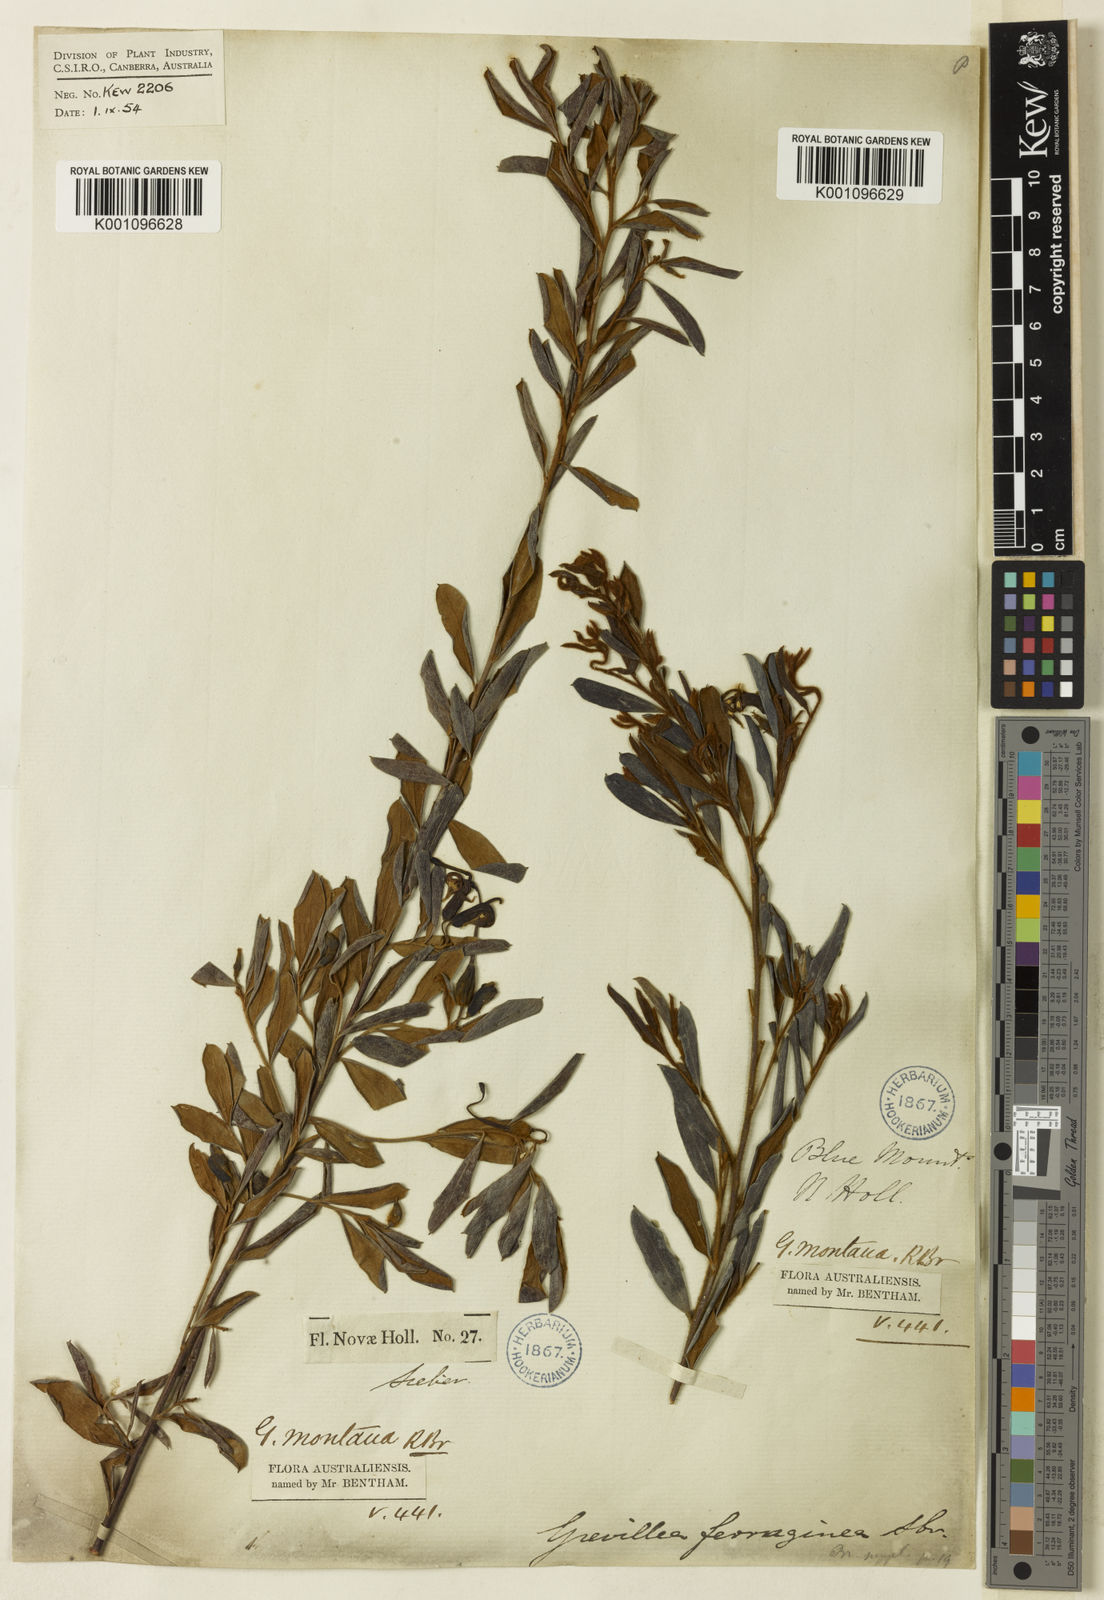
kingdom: Plantae
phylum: Tracheophyta
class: Magnoliopsida
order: Proteales
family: Proteaceae
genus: Grevillea
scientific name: Grevillea
